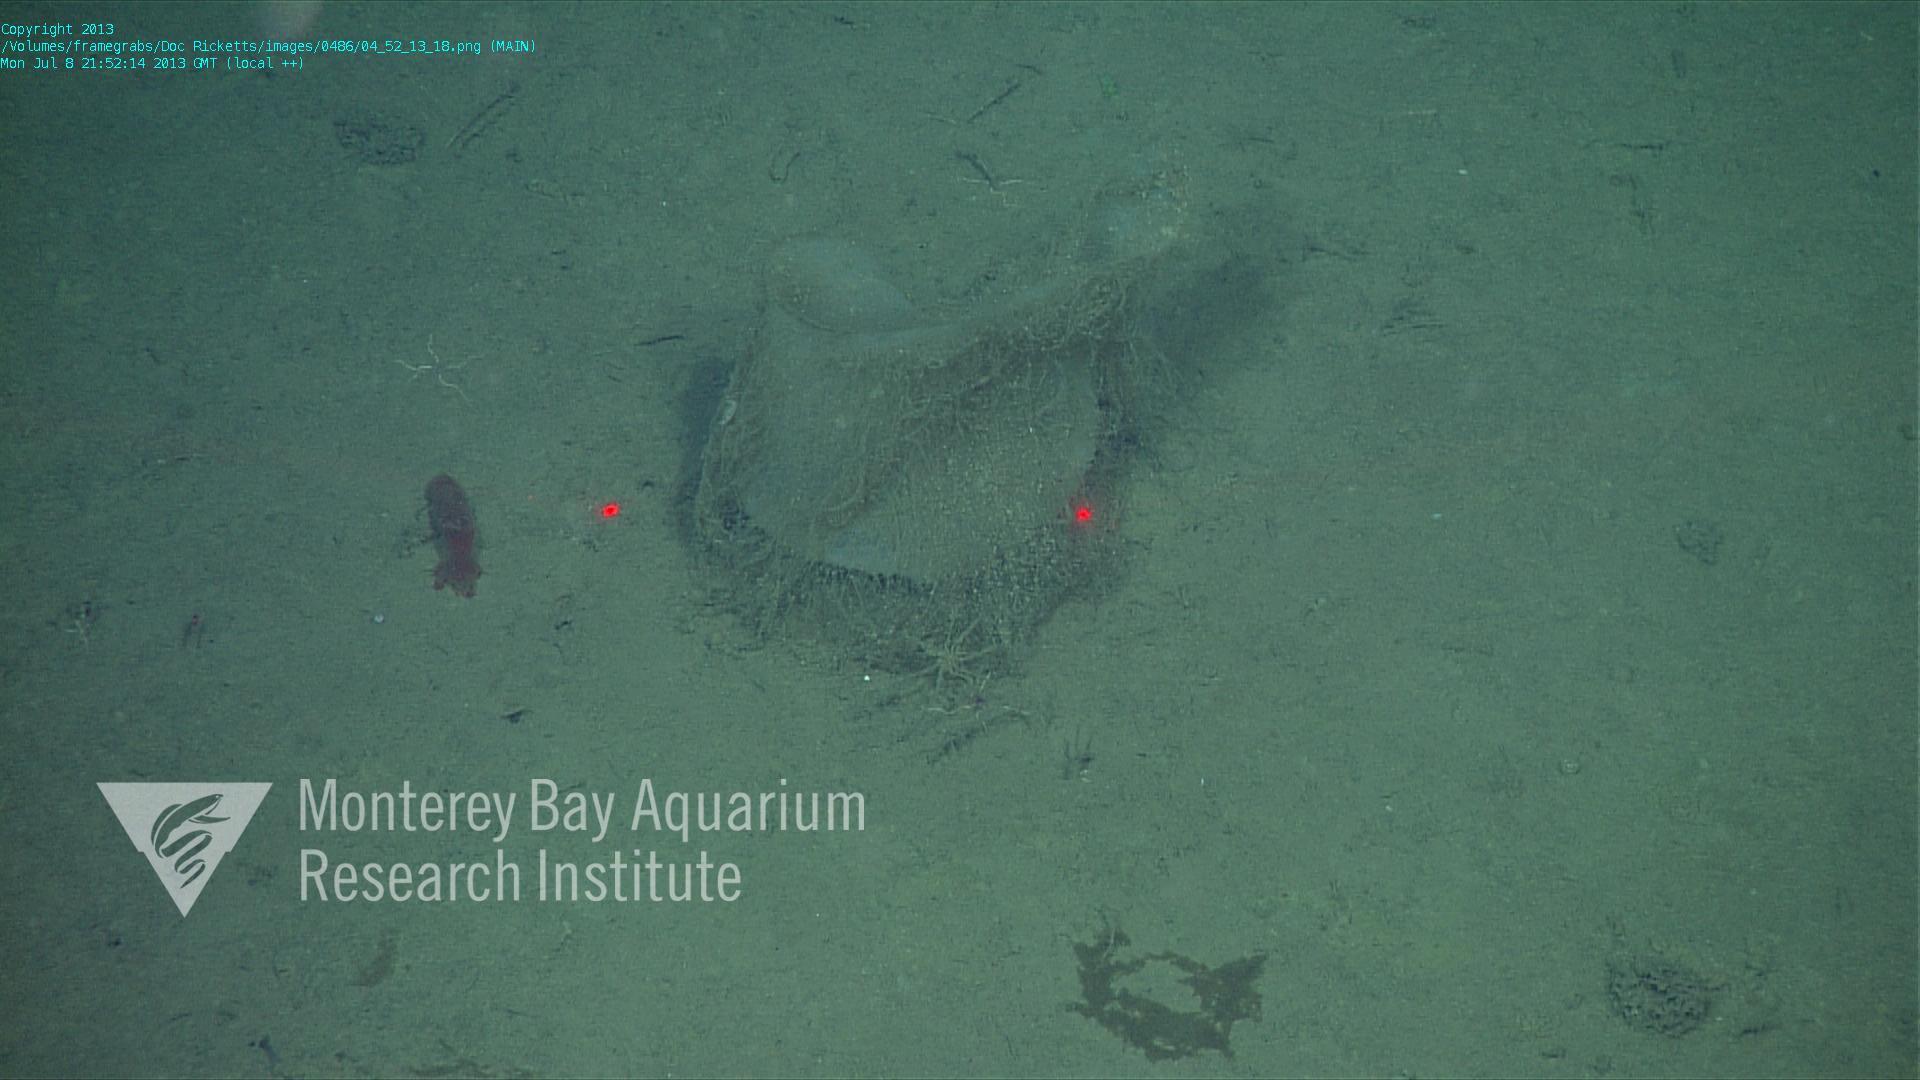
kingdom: Animalia
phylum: Porifera
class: Hexactinellida
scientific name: Hexactinellida
